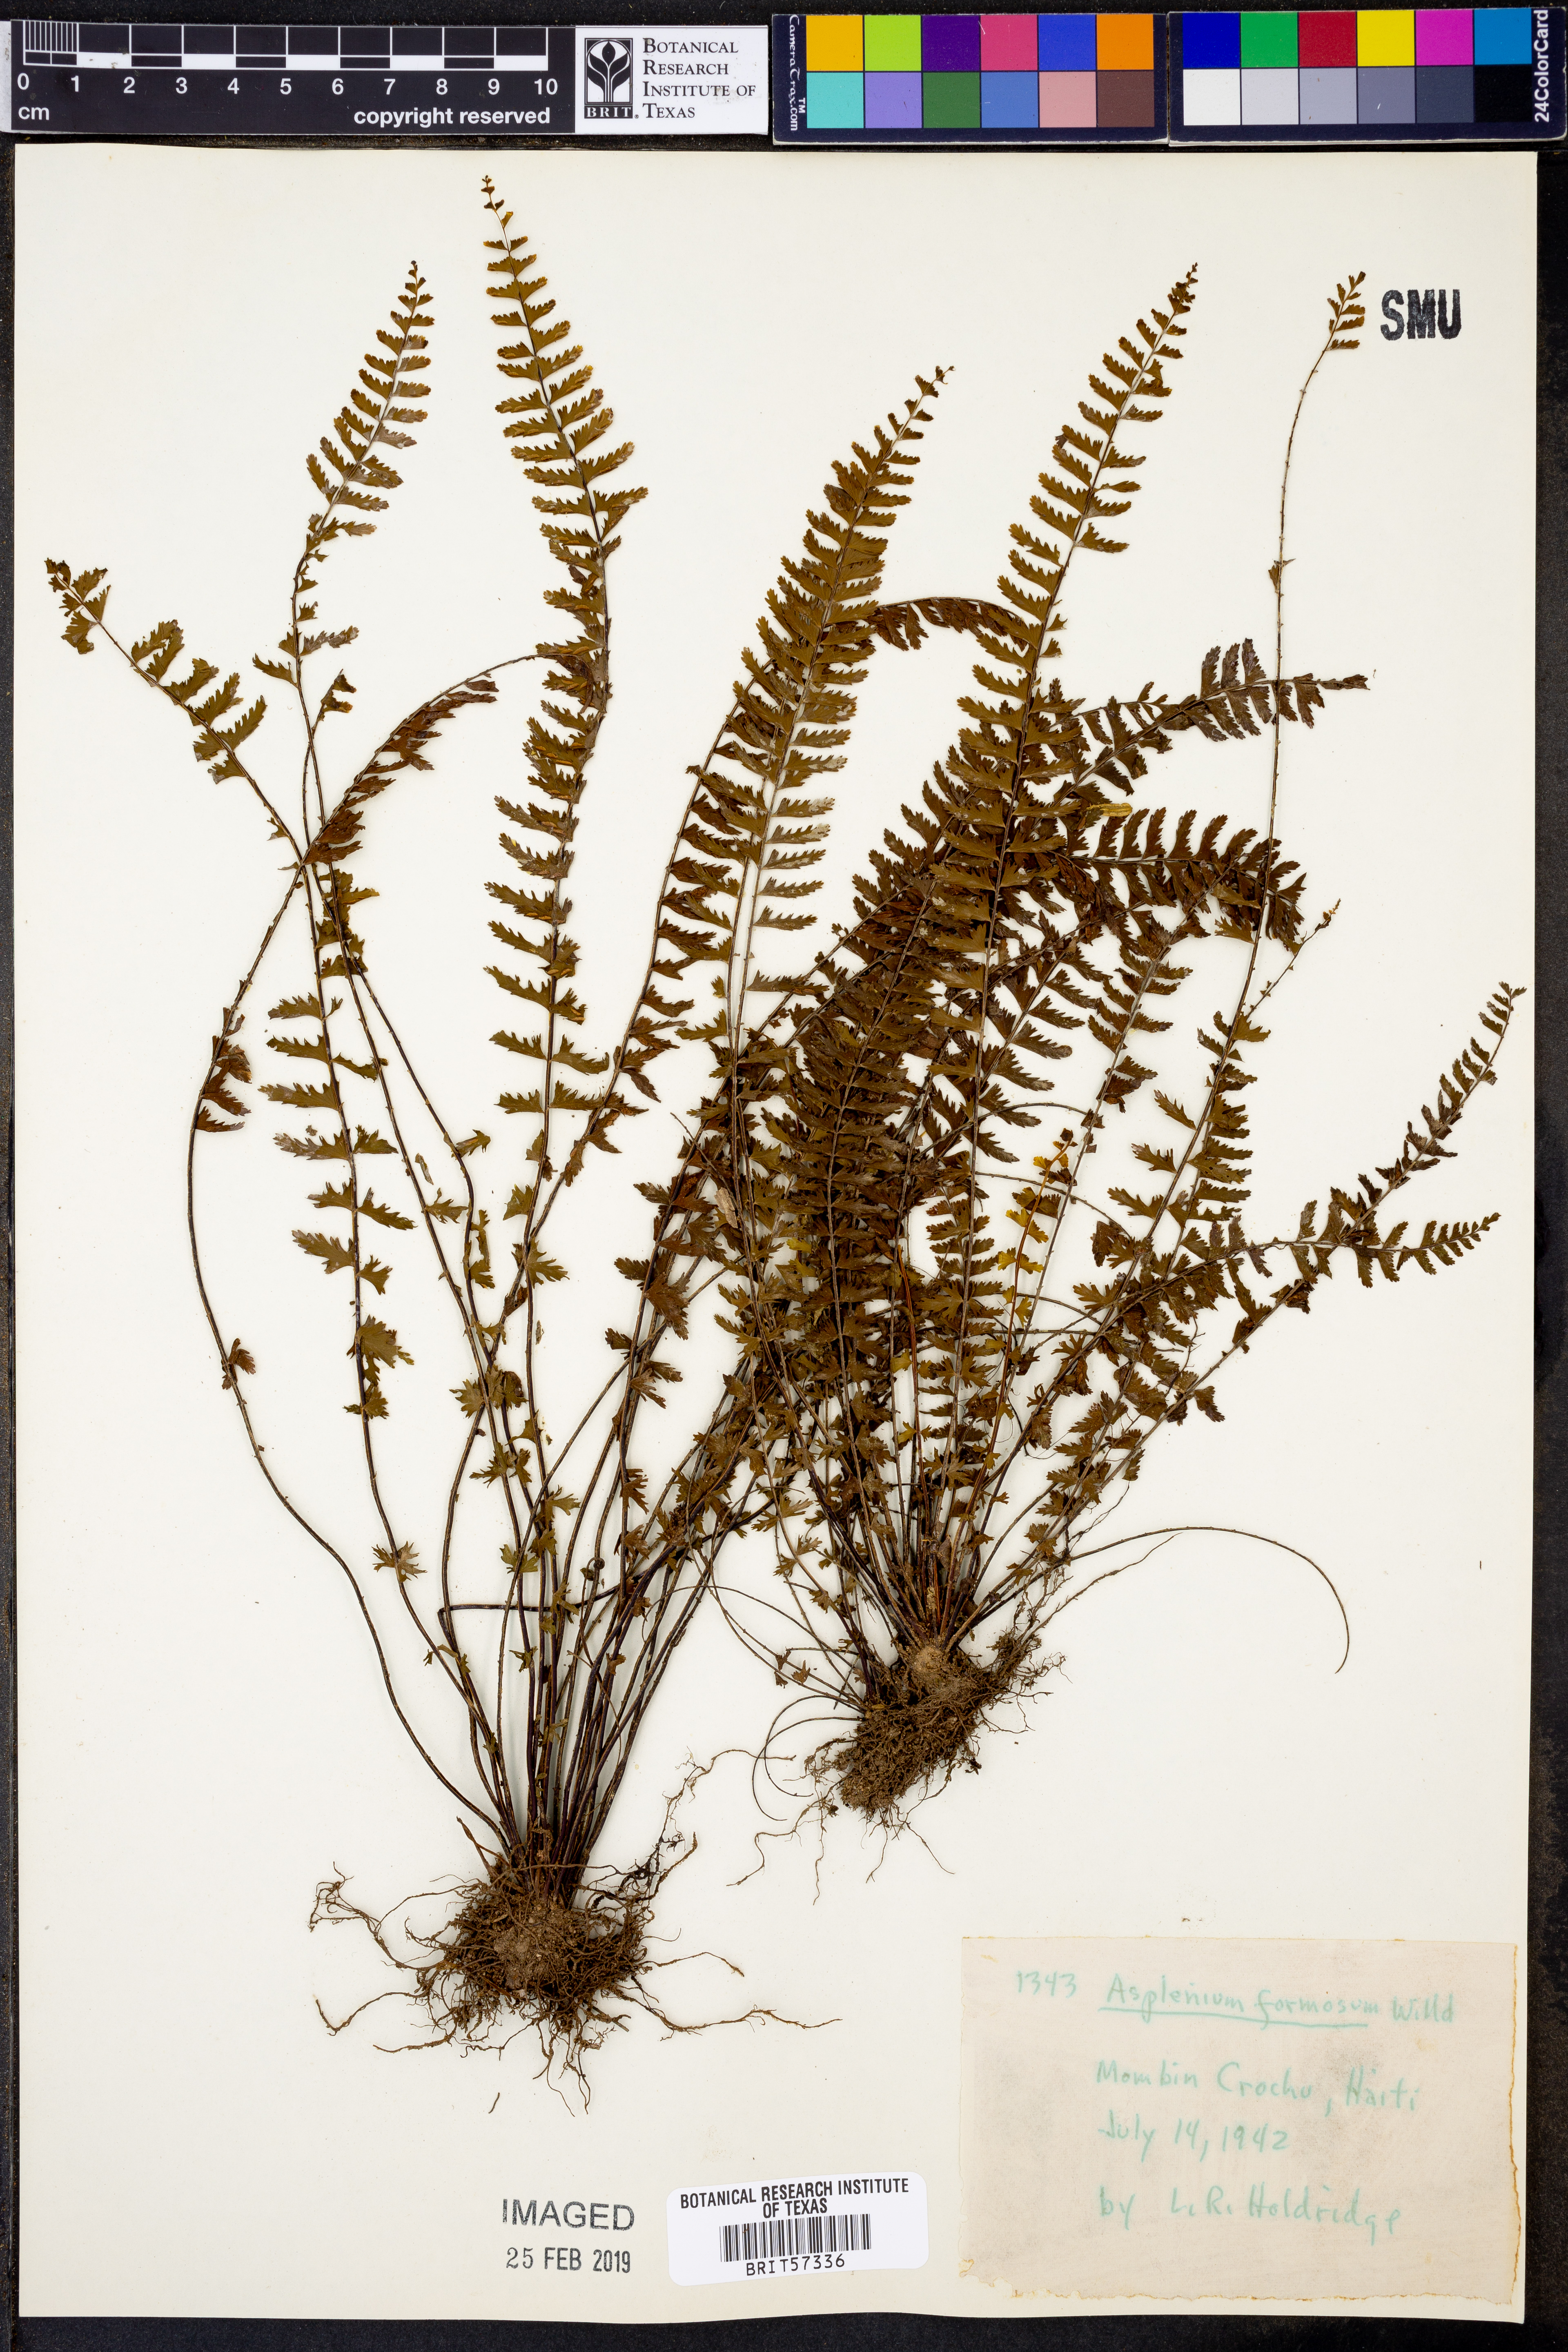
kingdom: Plantae
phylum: Tracheophyta
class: Polypodiopsida
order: Polypodiales
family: Aspleniaceae
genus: Asplenium
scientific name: Asplenium formosum
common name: Showy spleenwort
